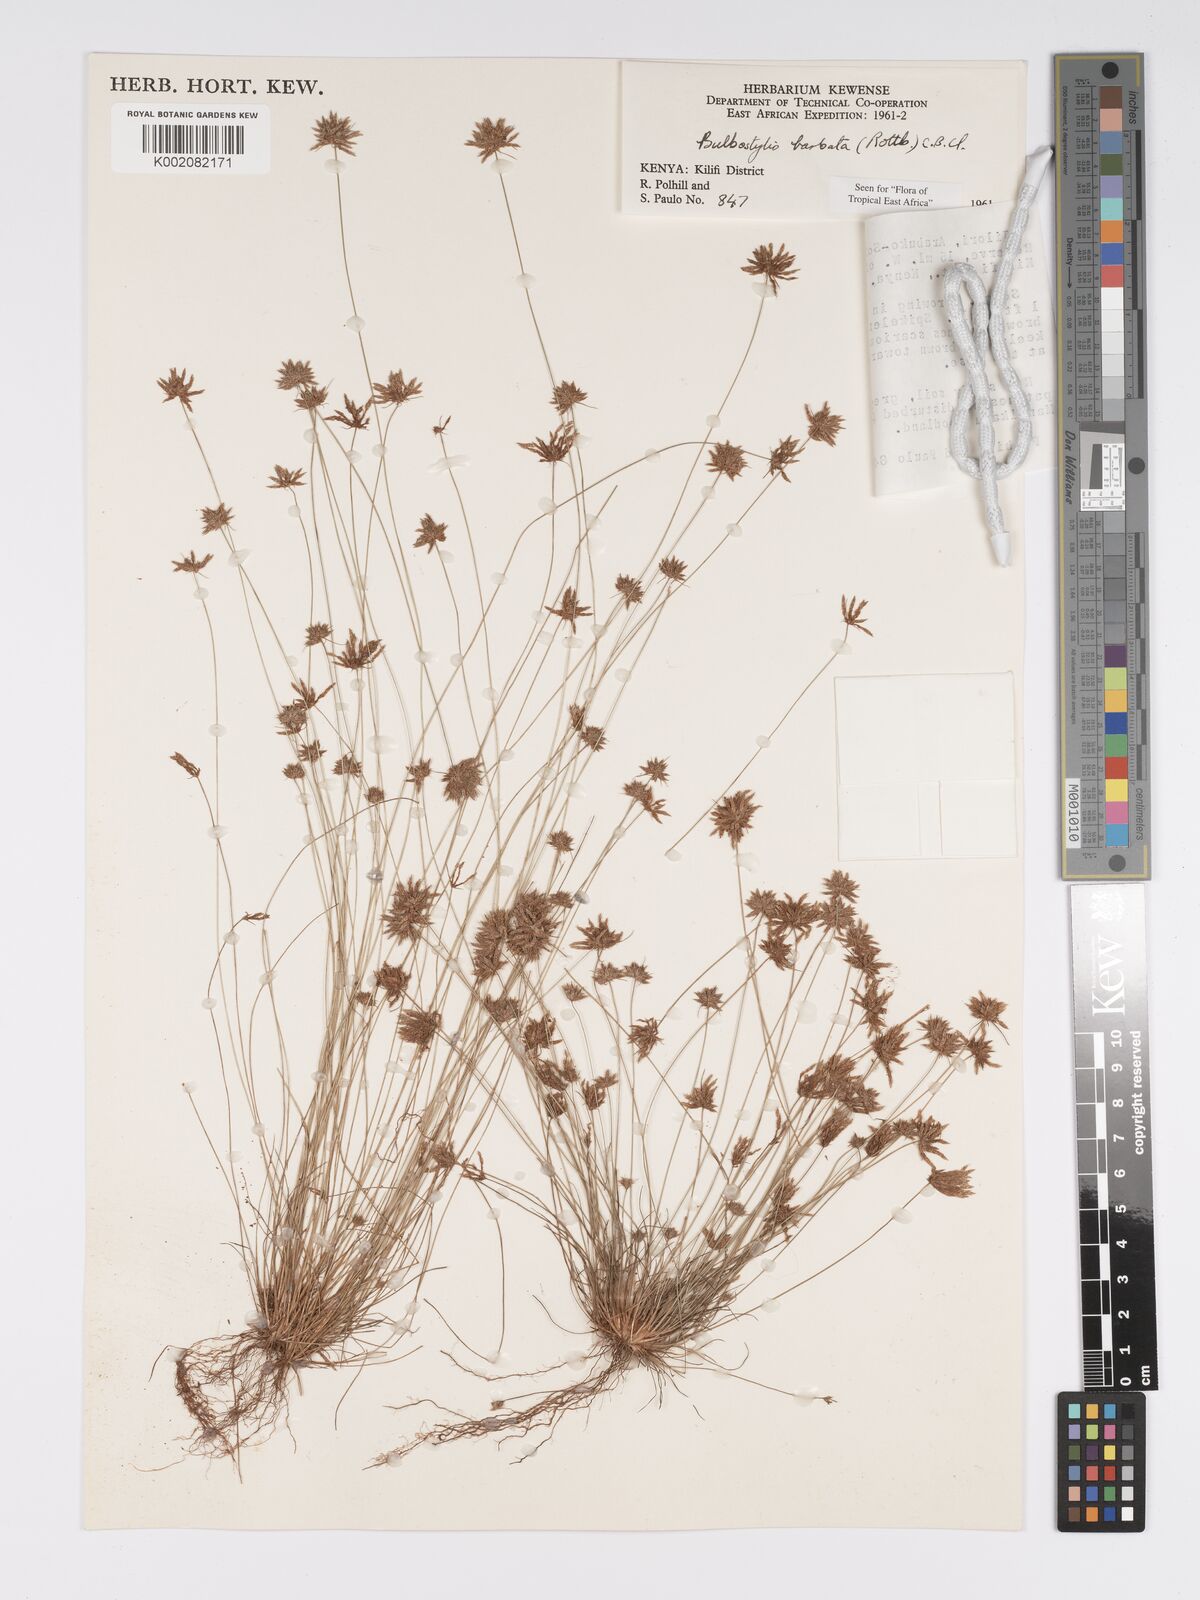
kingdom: Plantae
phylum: Tracheophyta
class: Liliopsida
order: Poales
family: Cyperaceae
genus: Bulbostylis
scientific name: Bulbostylis barbata
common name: Watergrass
